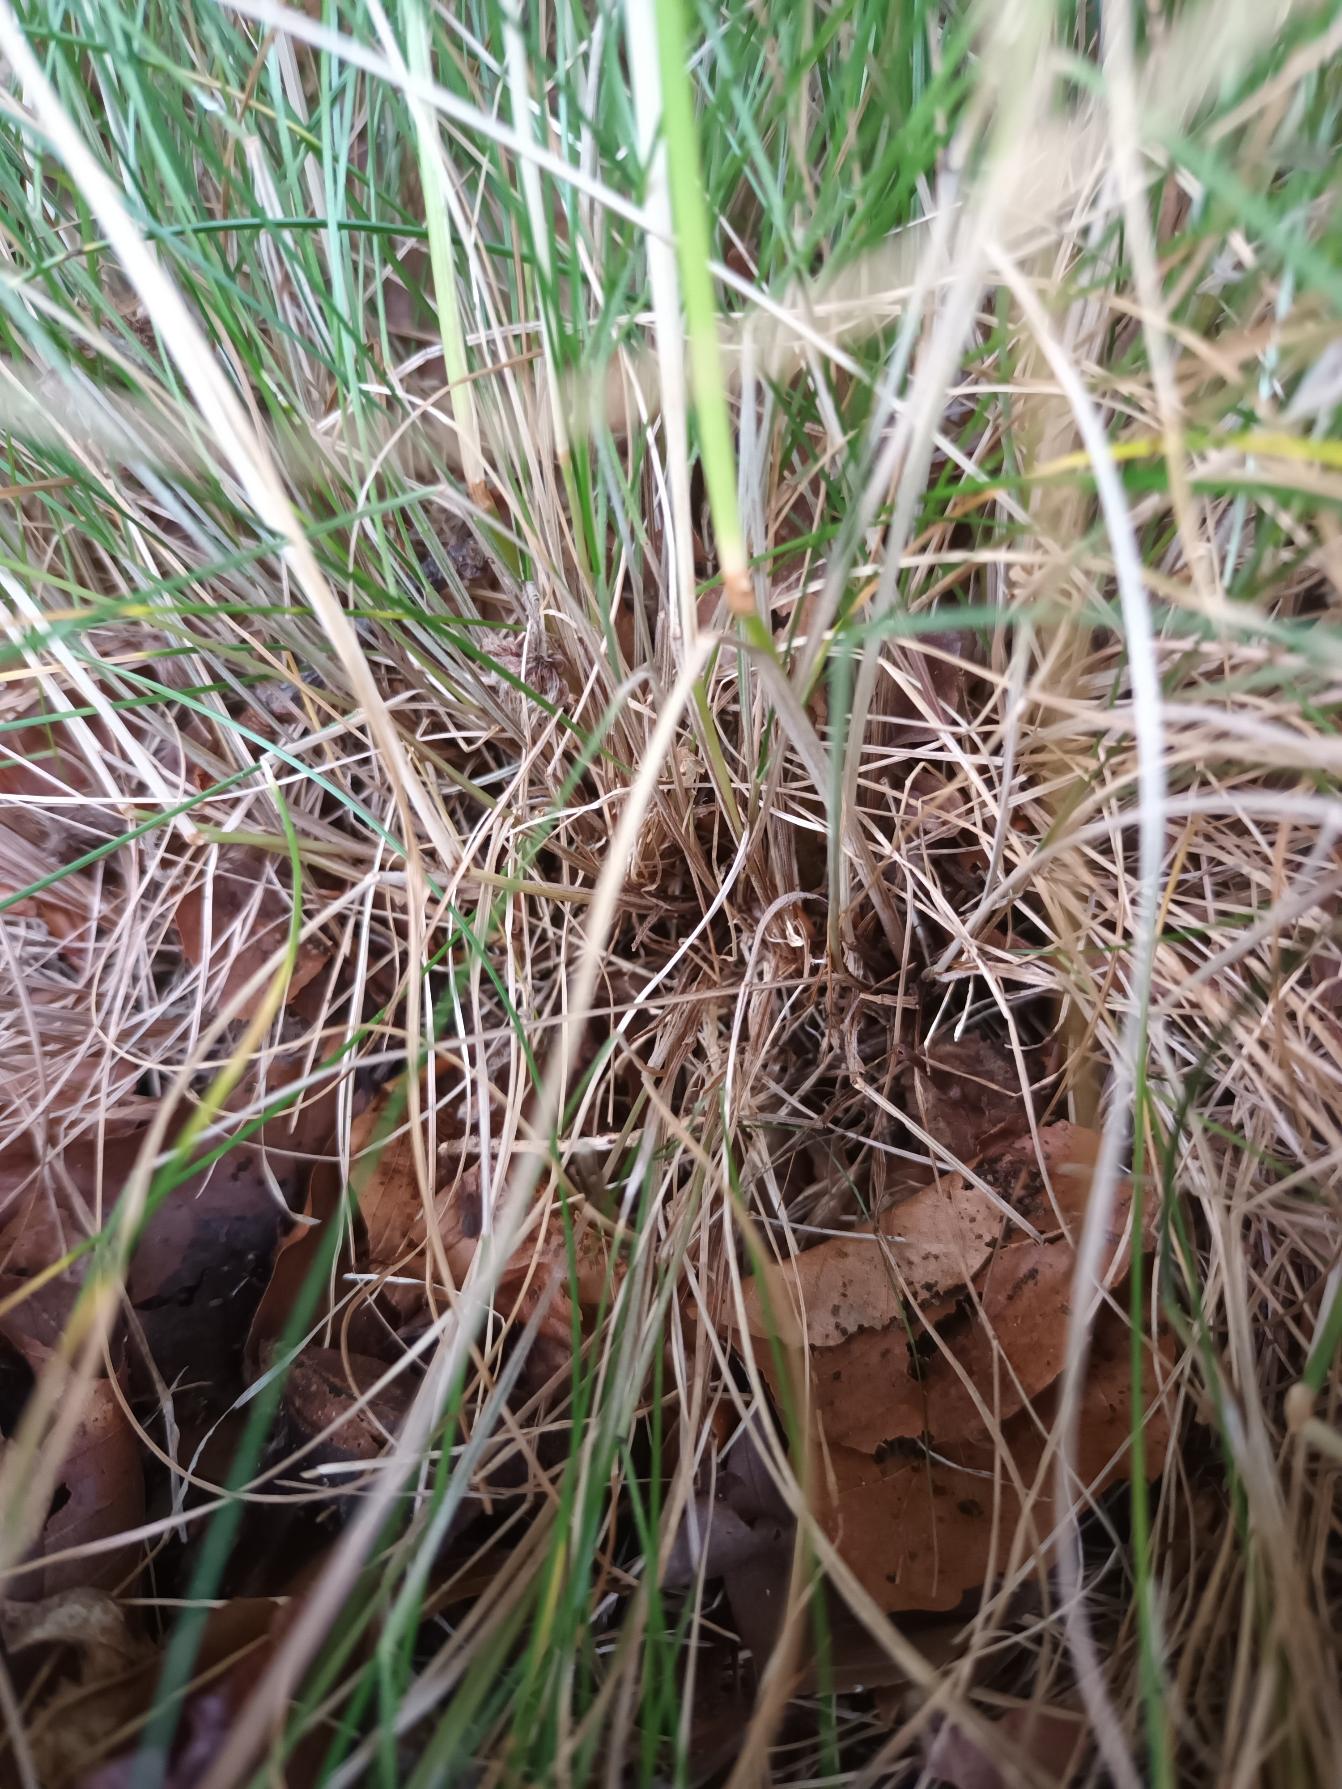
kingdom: Plantae
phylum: Tracheophyta
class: Liliopsida
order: Poales
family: Poaceae
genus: Festuca
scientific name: Festuca nigrescens
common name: Vej-svingel
